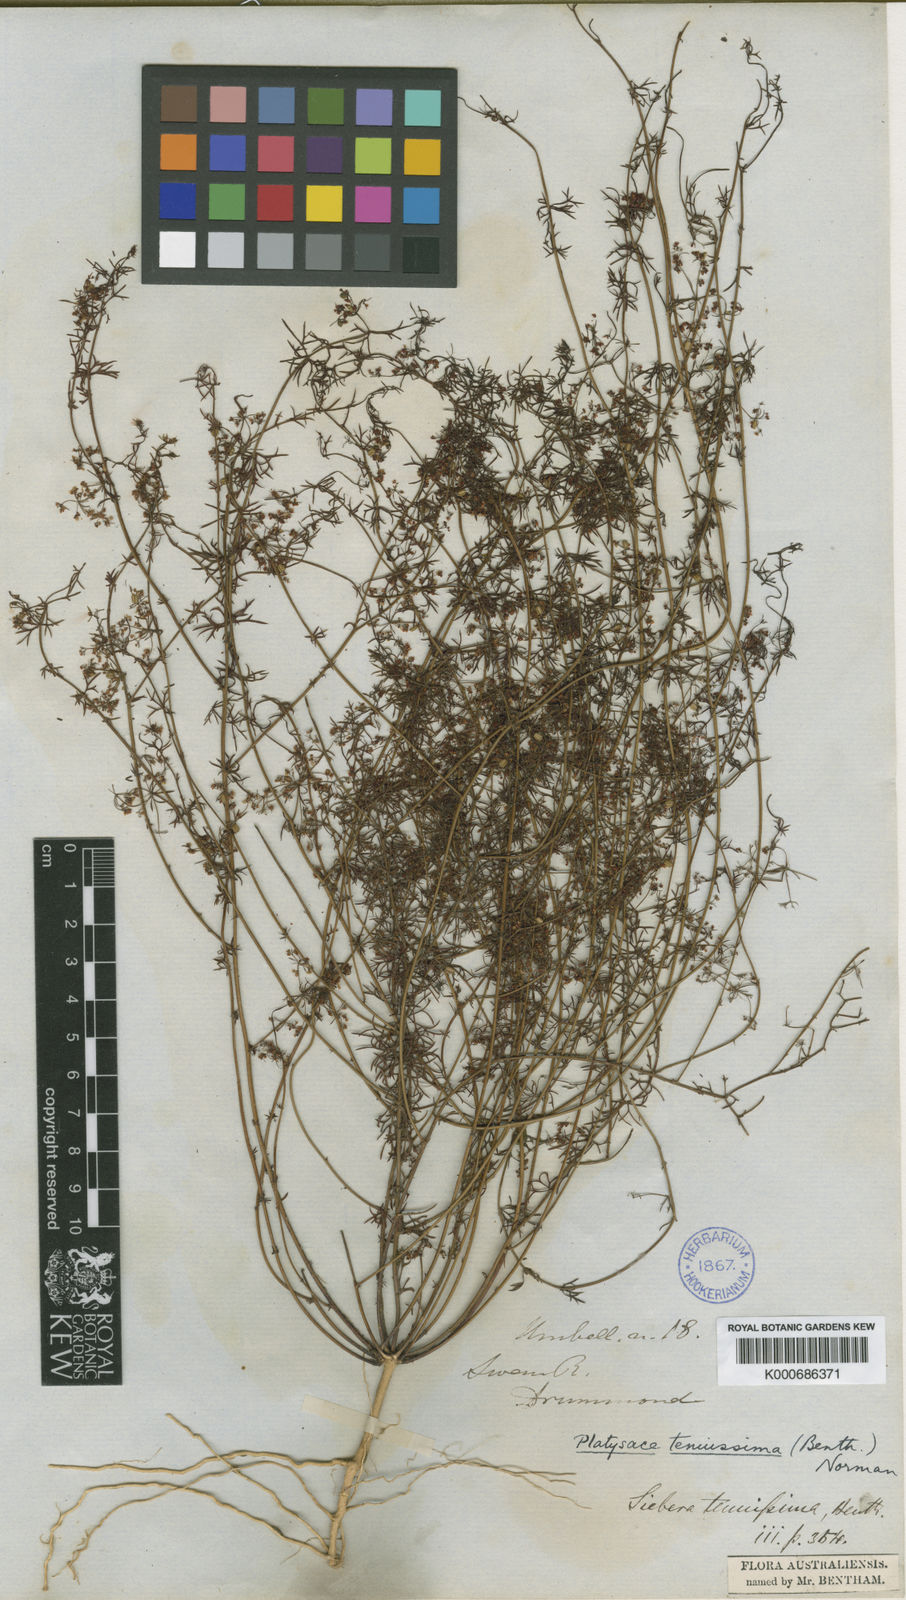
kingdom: Plantae
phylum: Tracheophyta
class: Magnoliopsida
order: Apiales
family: Apiaceae
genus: Platysace
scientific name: Platysace tenuissima
